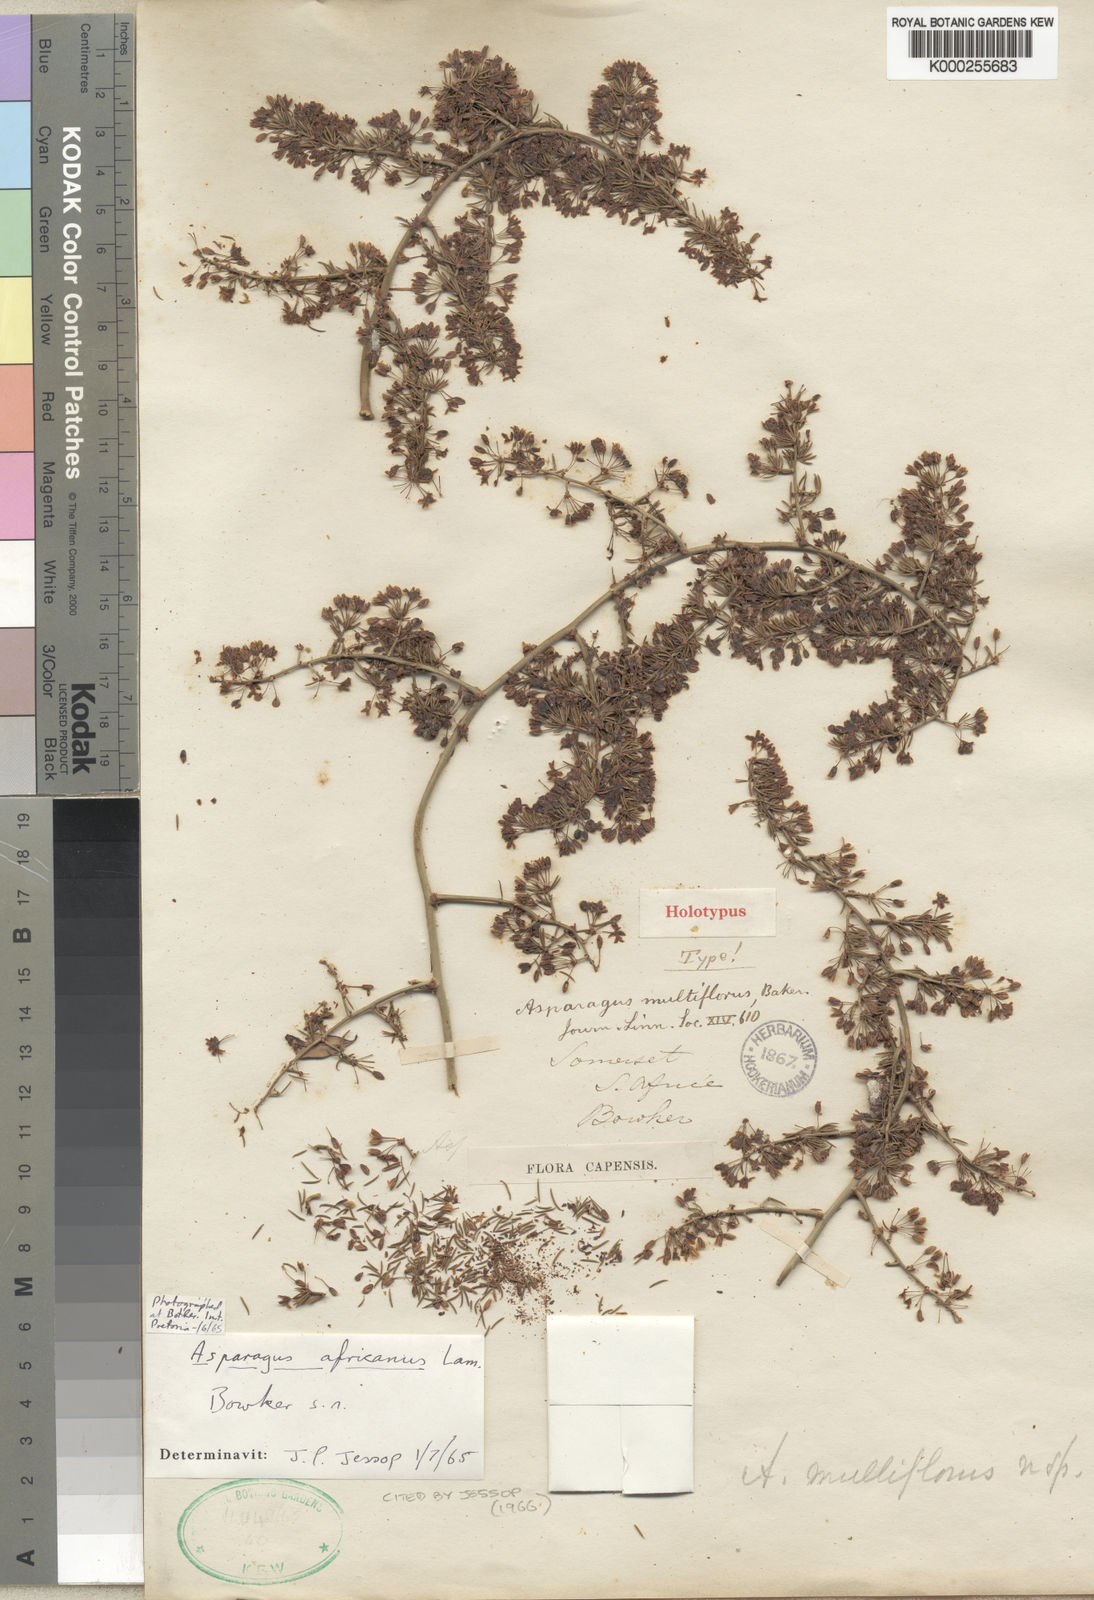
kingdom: Plantae
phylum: Tracheophyta
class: Liliopsida
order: Asparagales
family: Asparagaceae
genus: Asparagus
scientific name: Asparagus africanus
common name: Asparagus-fern
